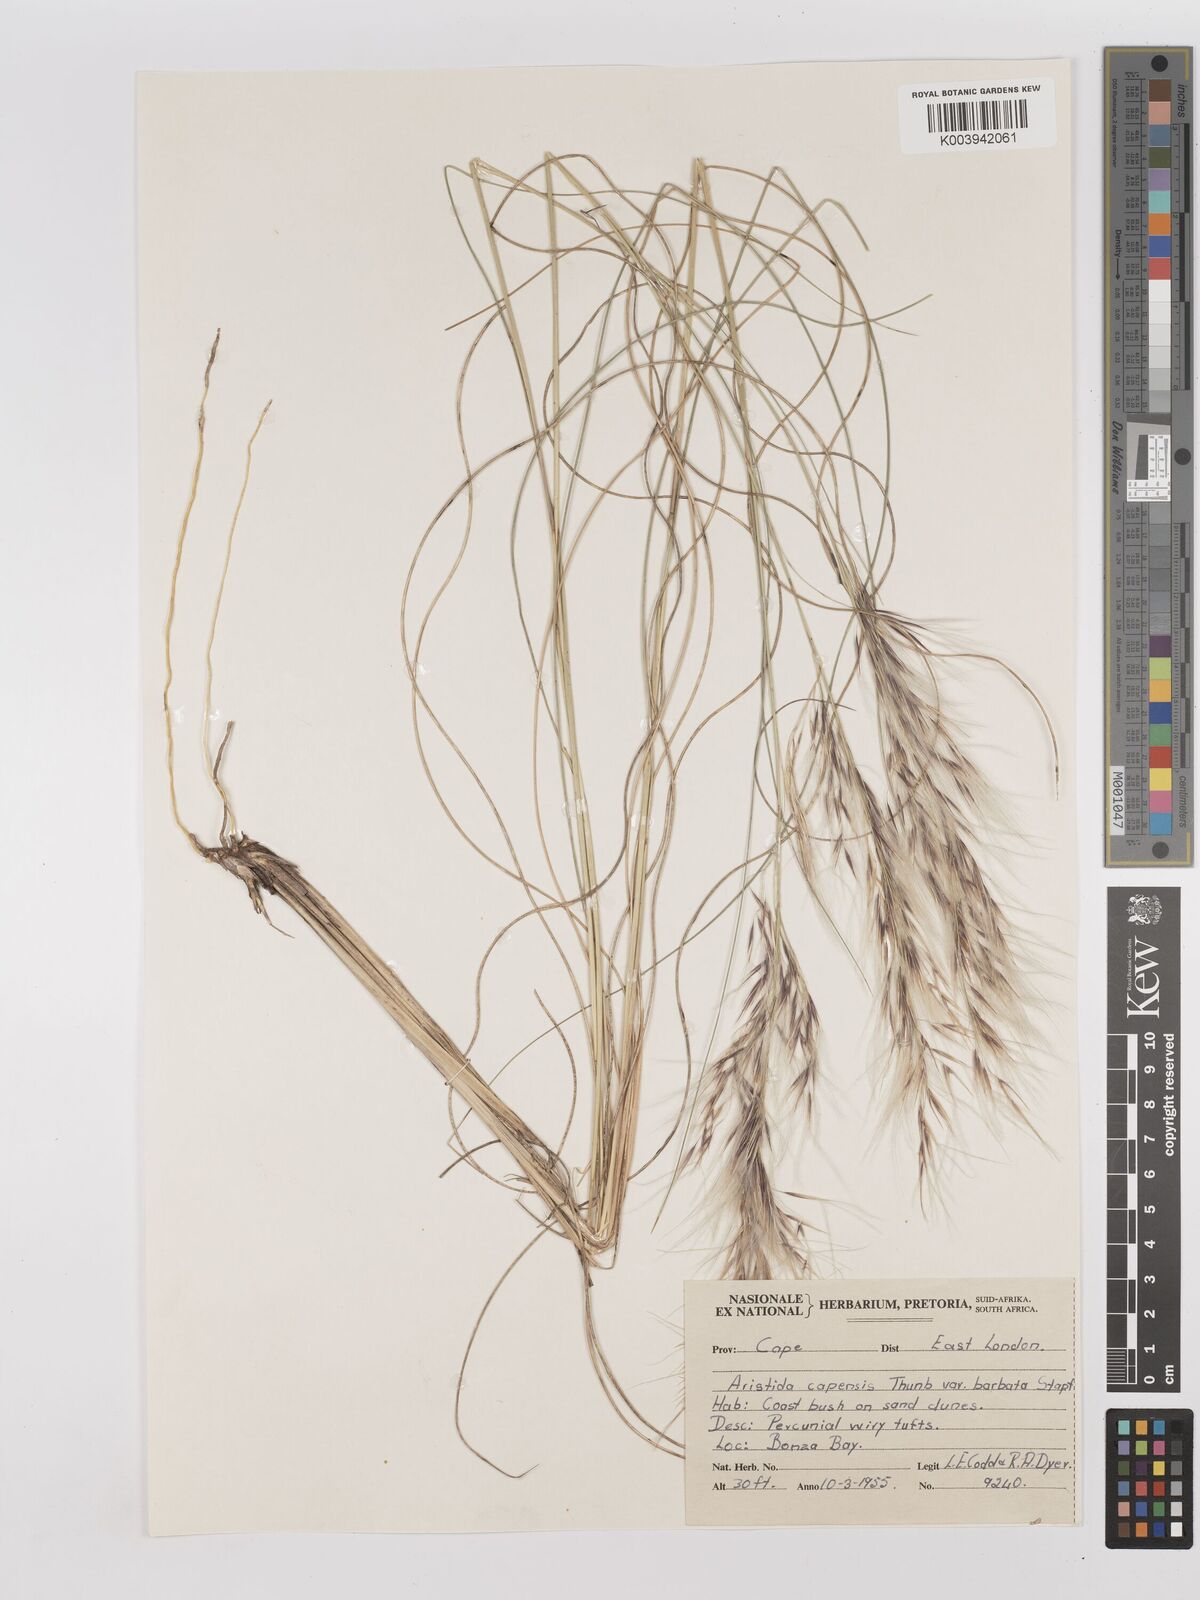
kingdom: Plantae
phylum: Tracheophyta
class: Liliopsida
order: Poales
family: Poaceae
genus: Stipagrostis
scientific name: Stipagrostis zeyheri
